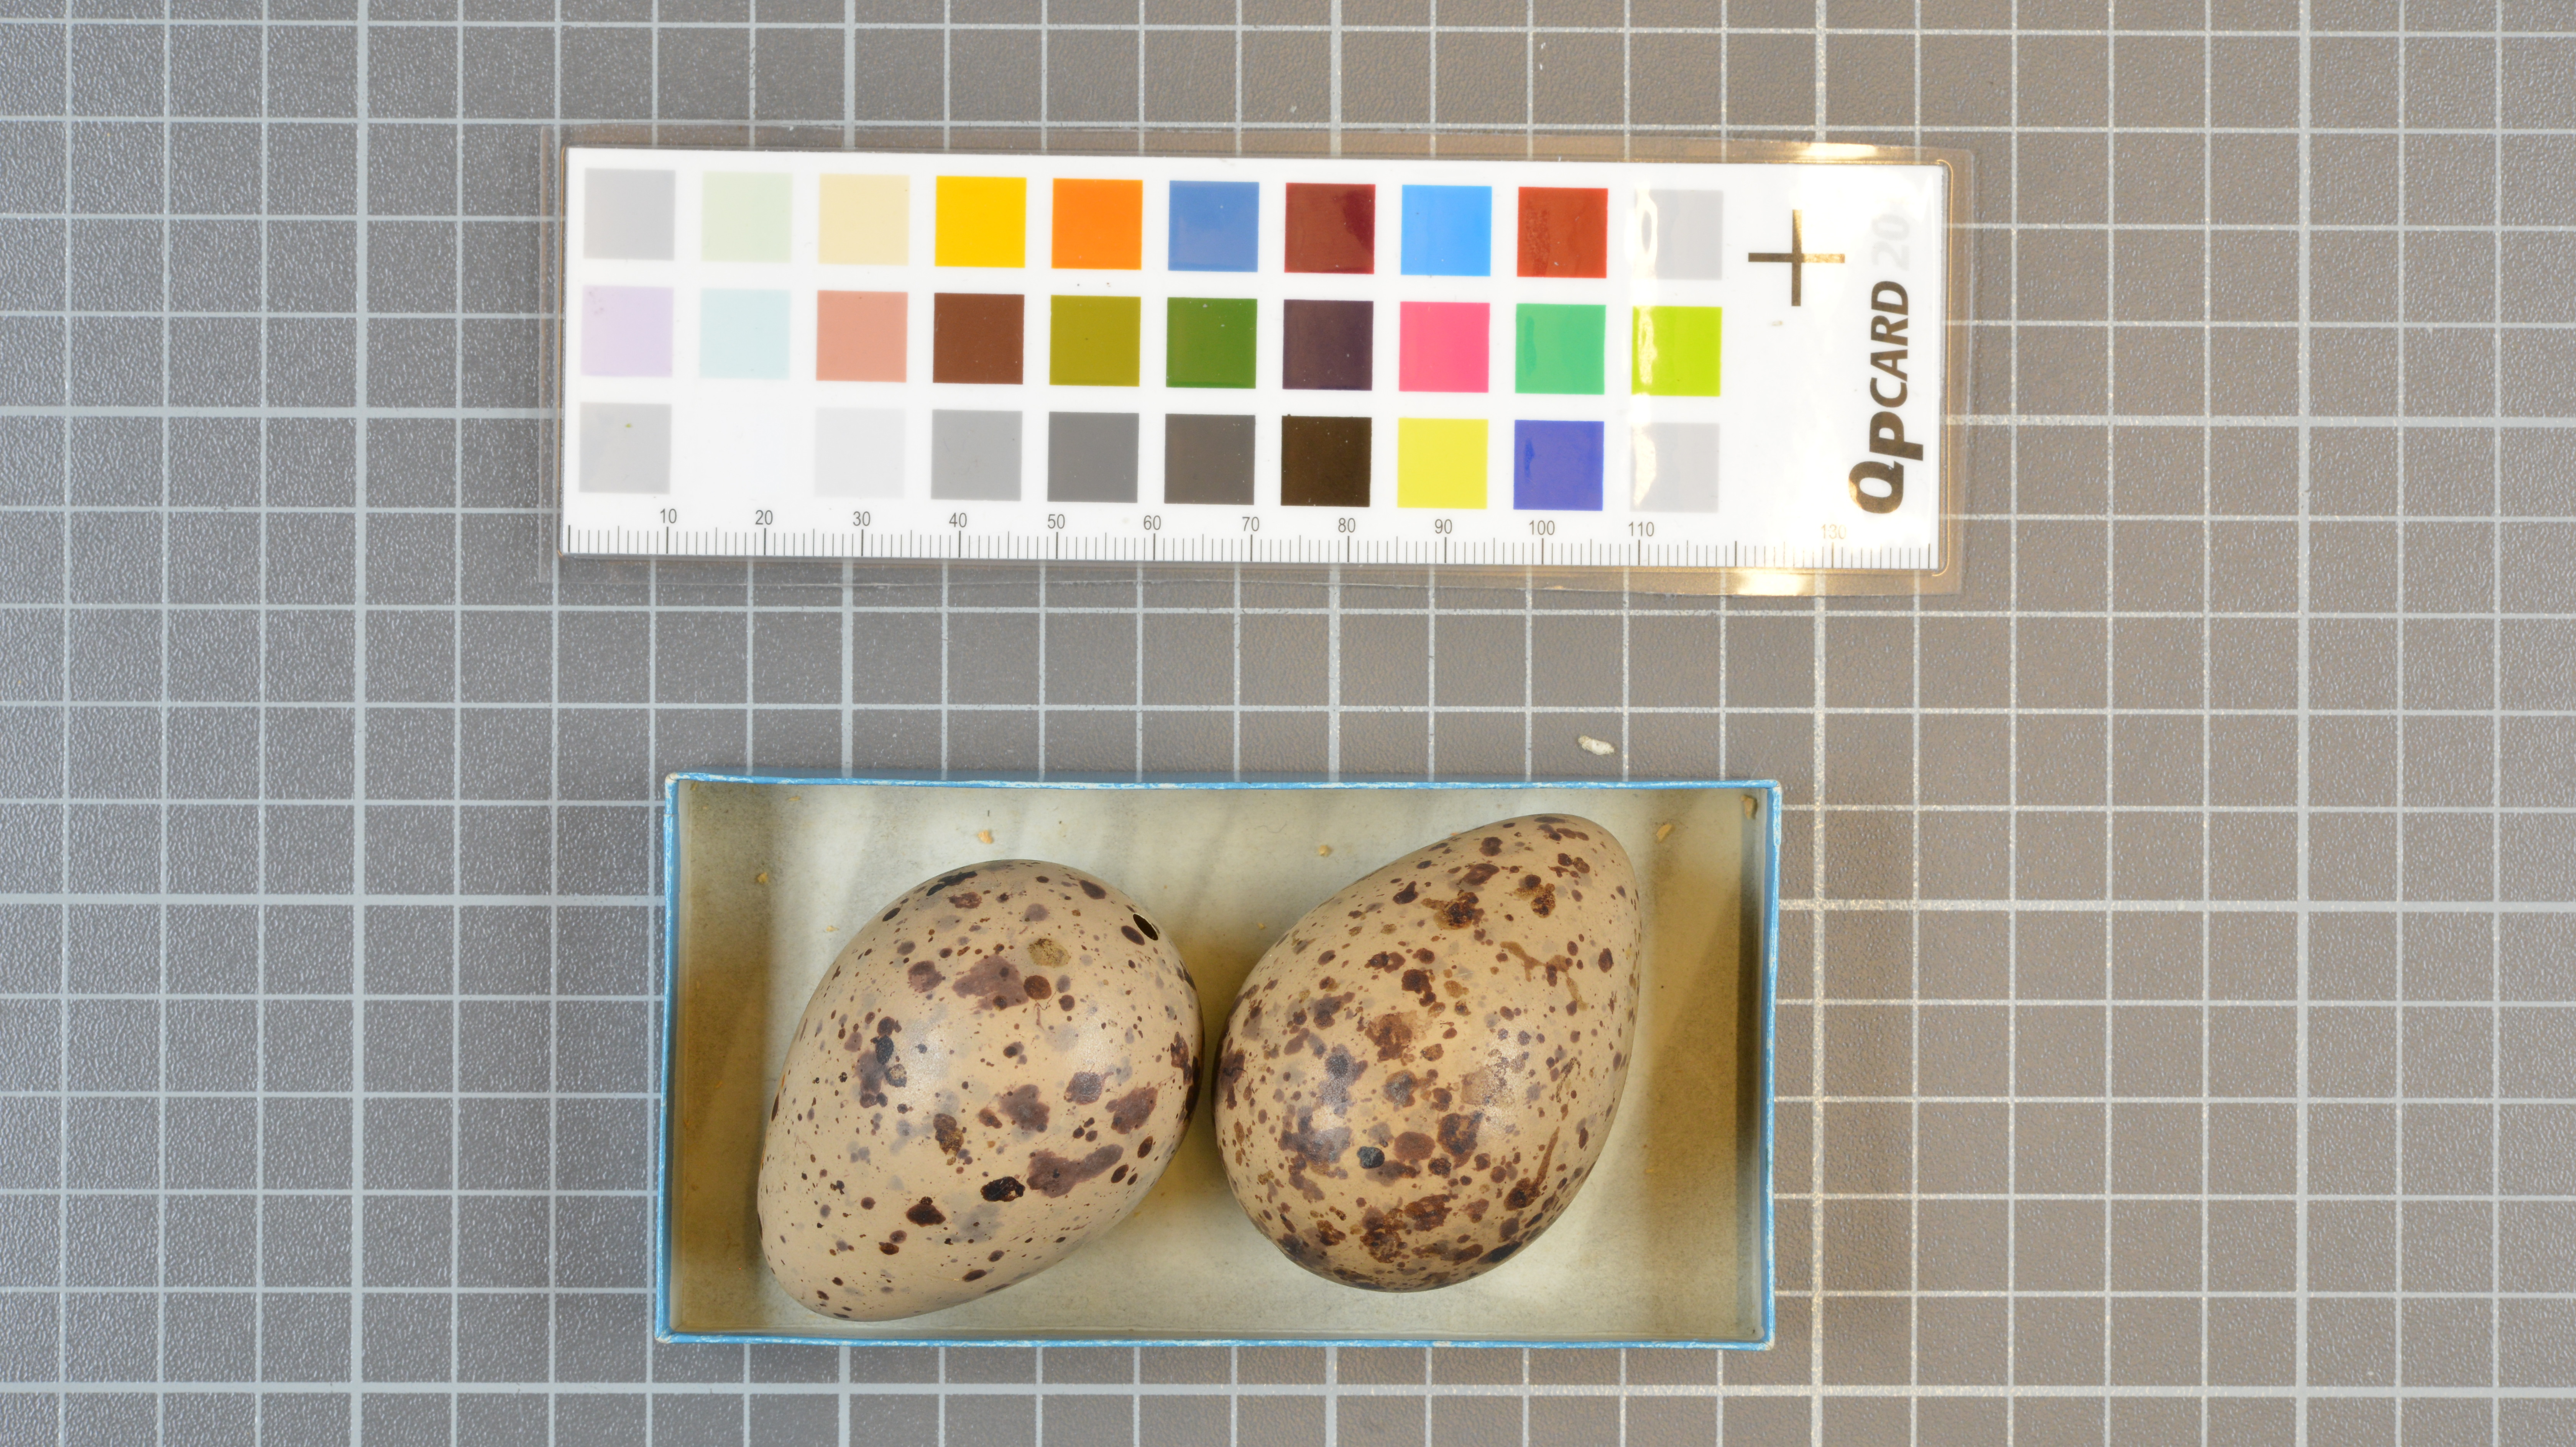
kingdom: Animalia
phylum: Chordata
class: Aves
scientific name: Aves
